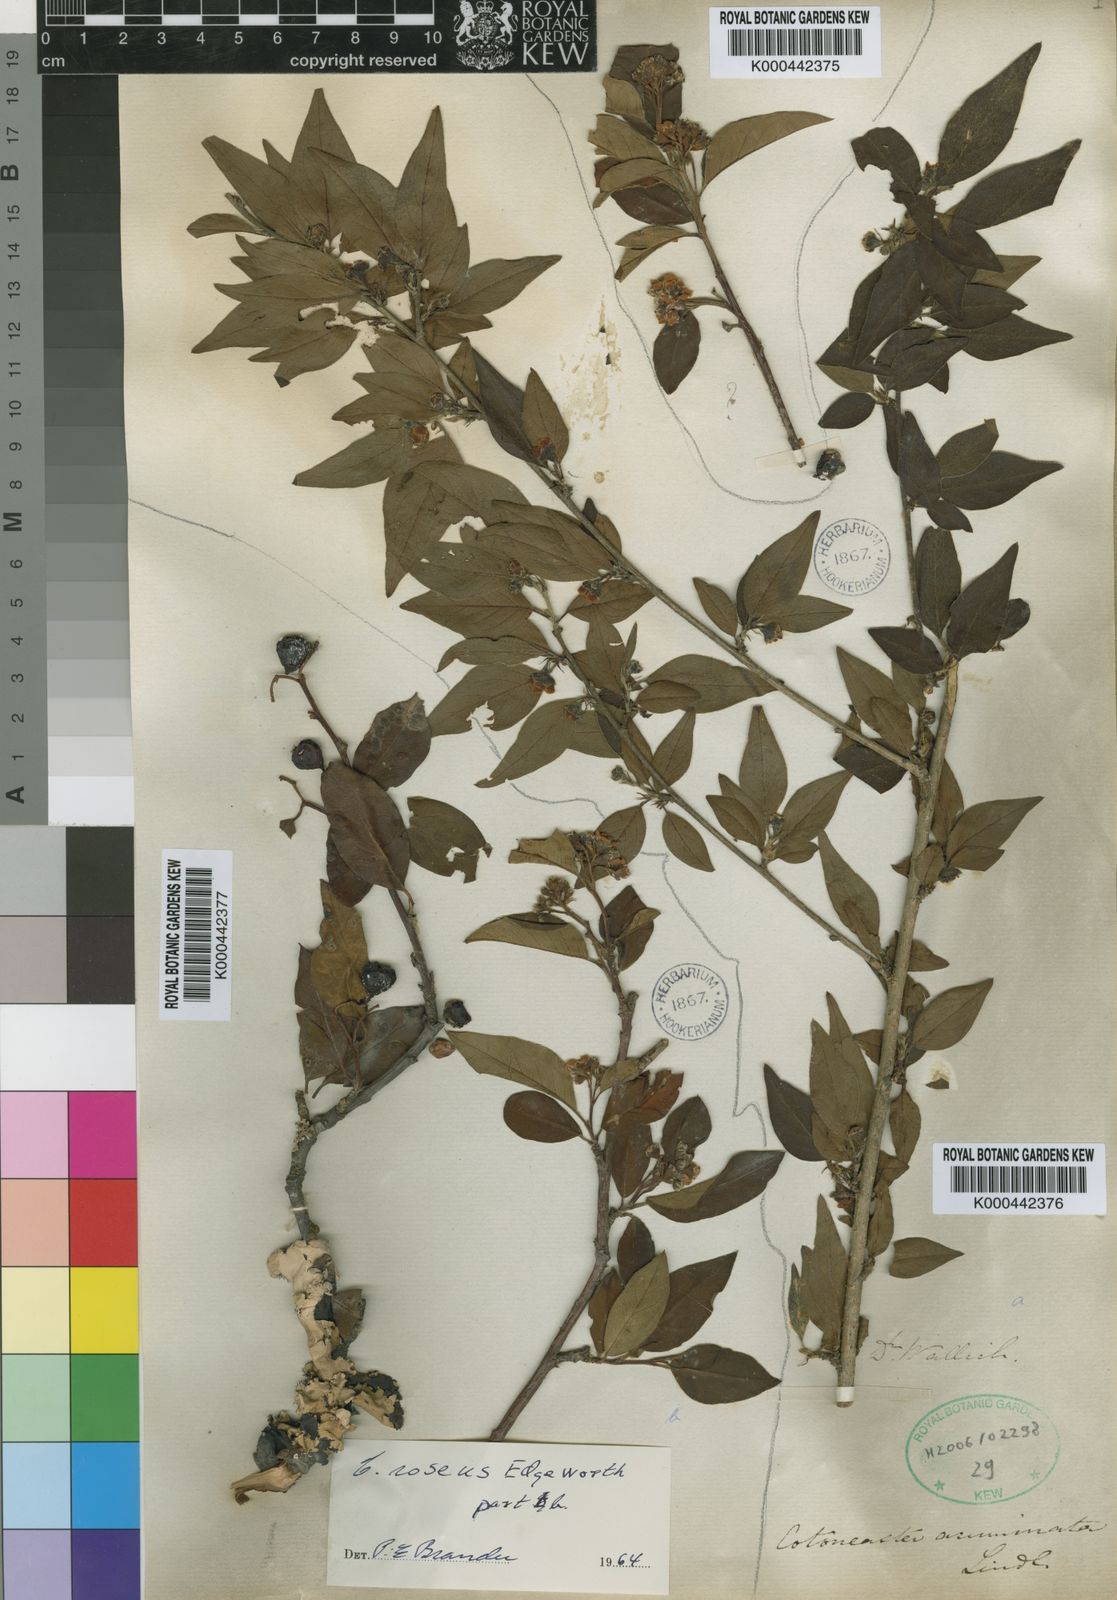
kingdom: Plantae
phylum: Tracheophyta
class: Magnoliopsida
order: Rosales
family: Rosaceae
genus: Cotoneaster
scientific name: Cotoneaster acuminatus
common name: Acuminate cotoneaster
